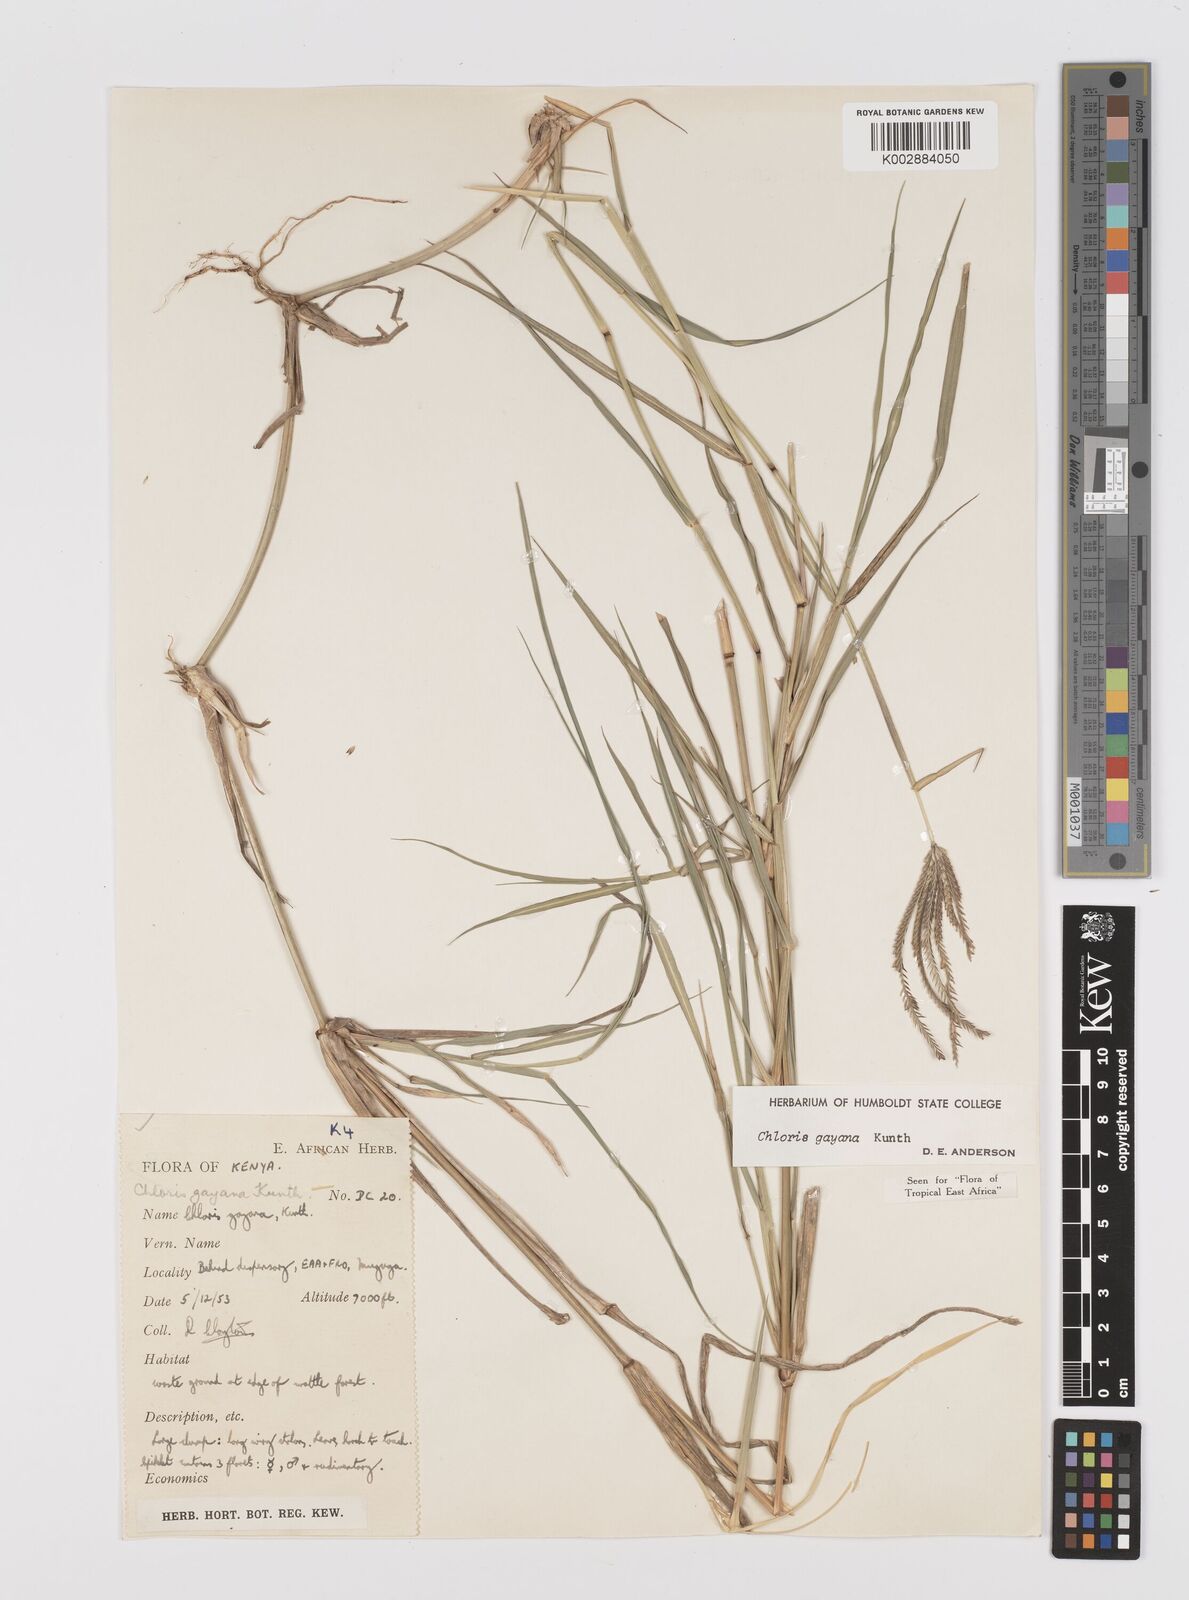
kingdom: Plantae
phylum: Tracheophyta
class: Liliopsida
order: Poales
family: Poaceae
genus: Chloris
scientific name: Chloris gayana
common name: Rhodes grass
